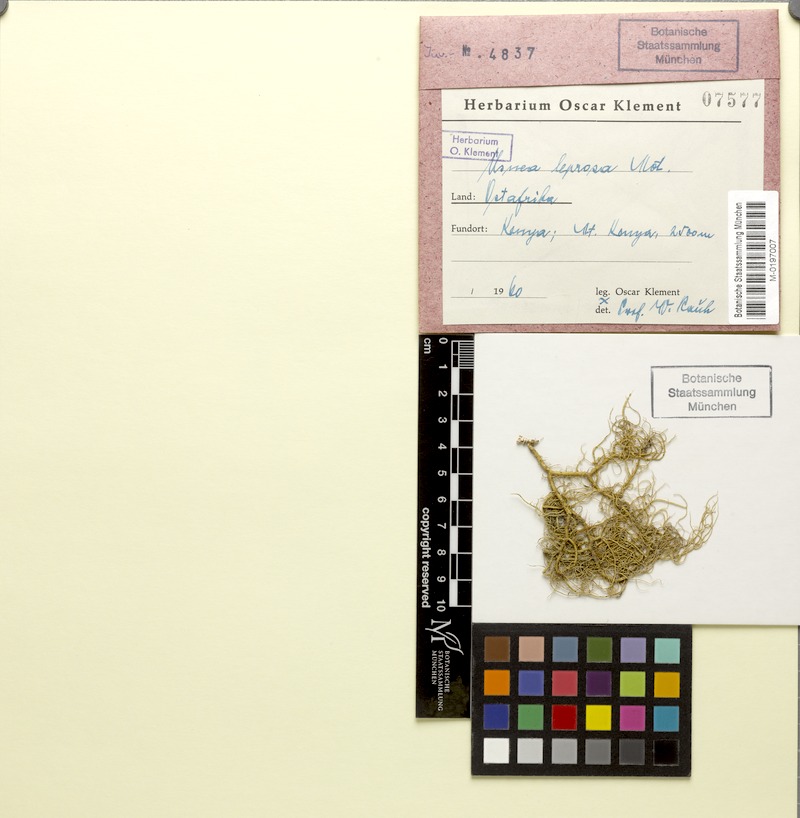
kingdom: Fungi
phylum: Ascomycota
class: Lecanoromycetes
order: Lecanorales
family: Parmeliaceae
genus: Usnea
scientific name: Usnea leprosa
